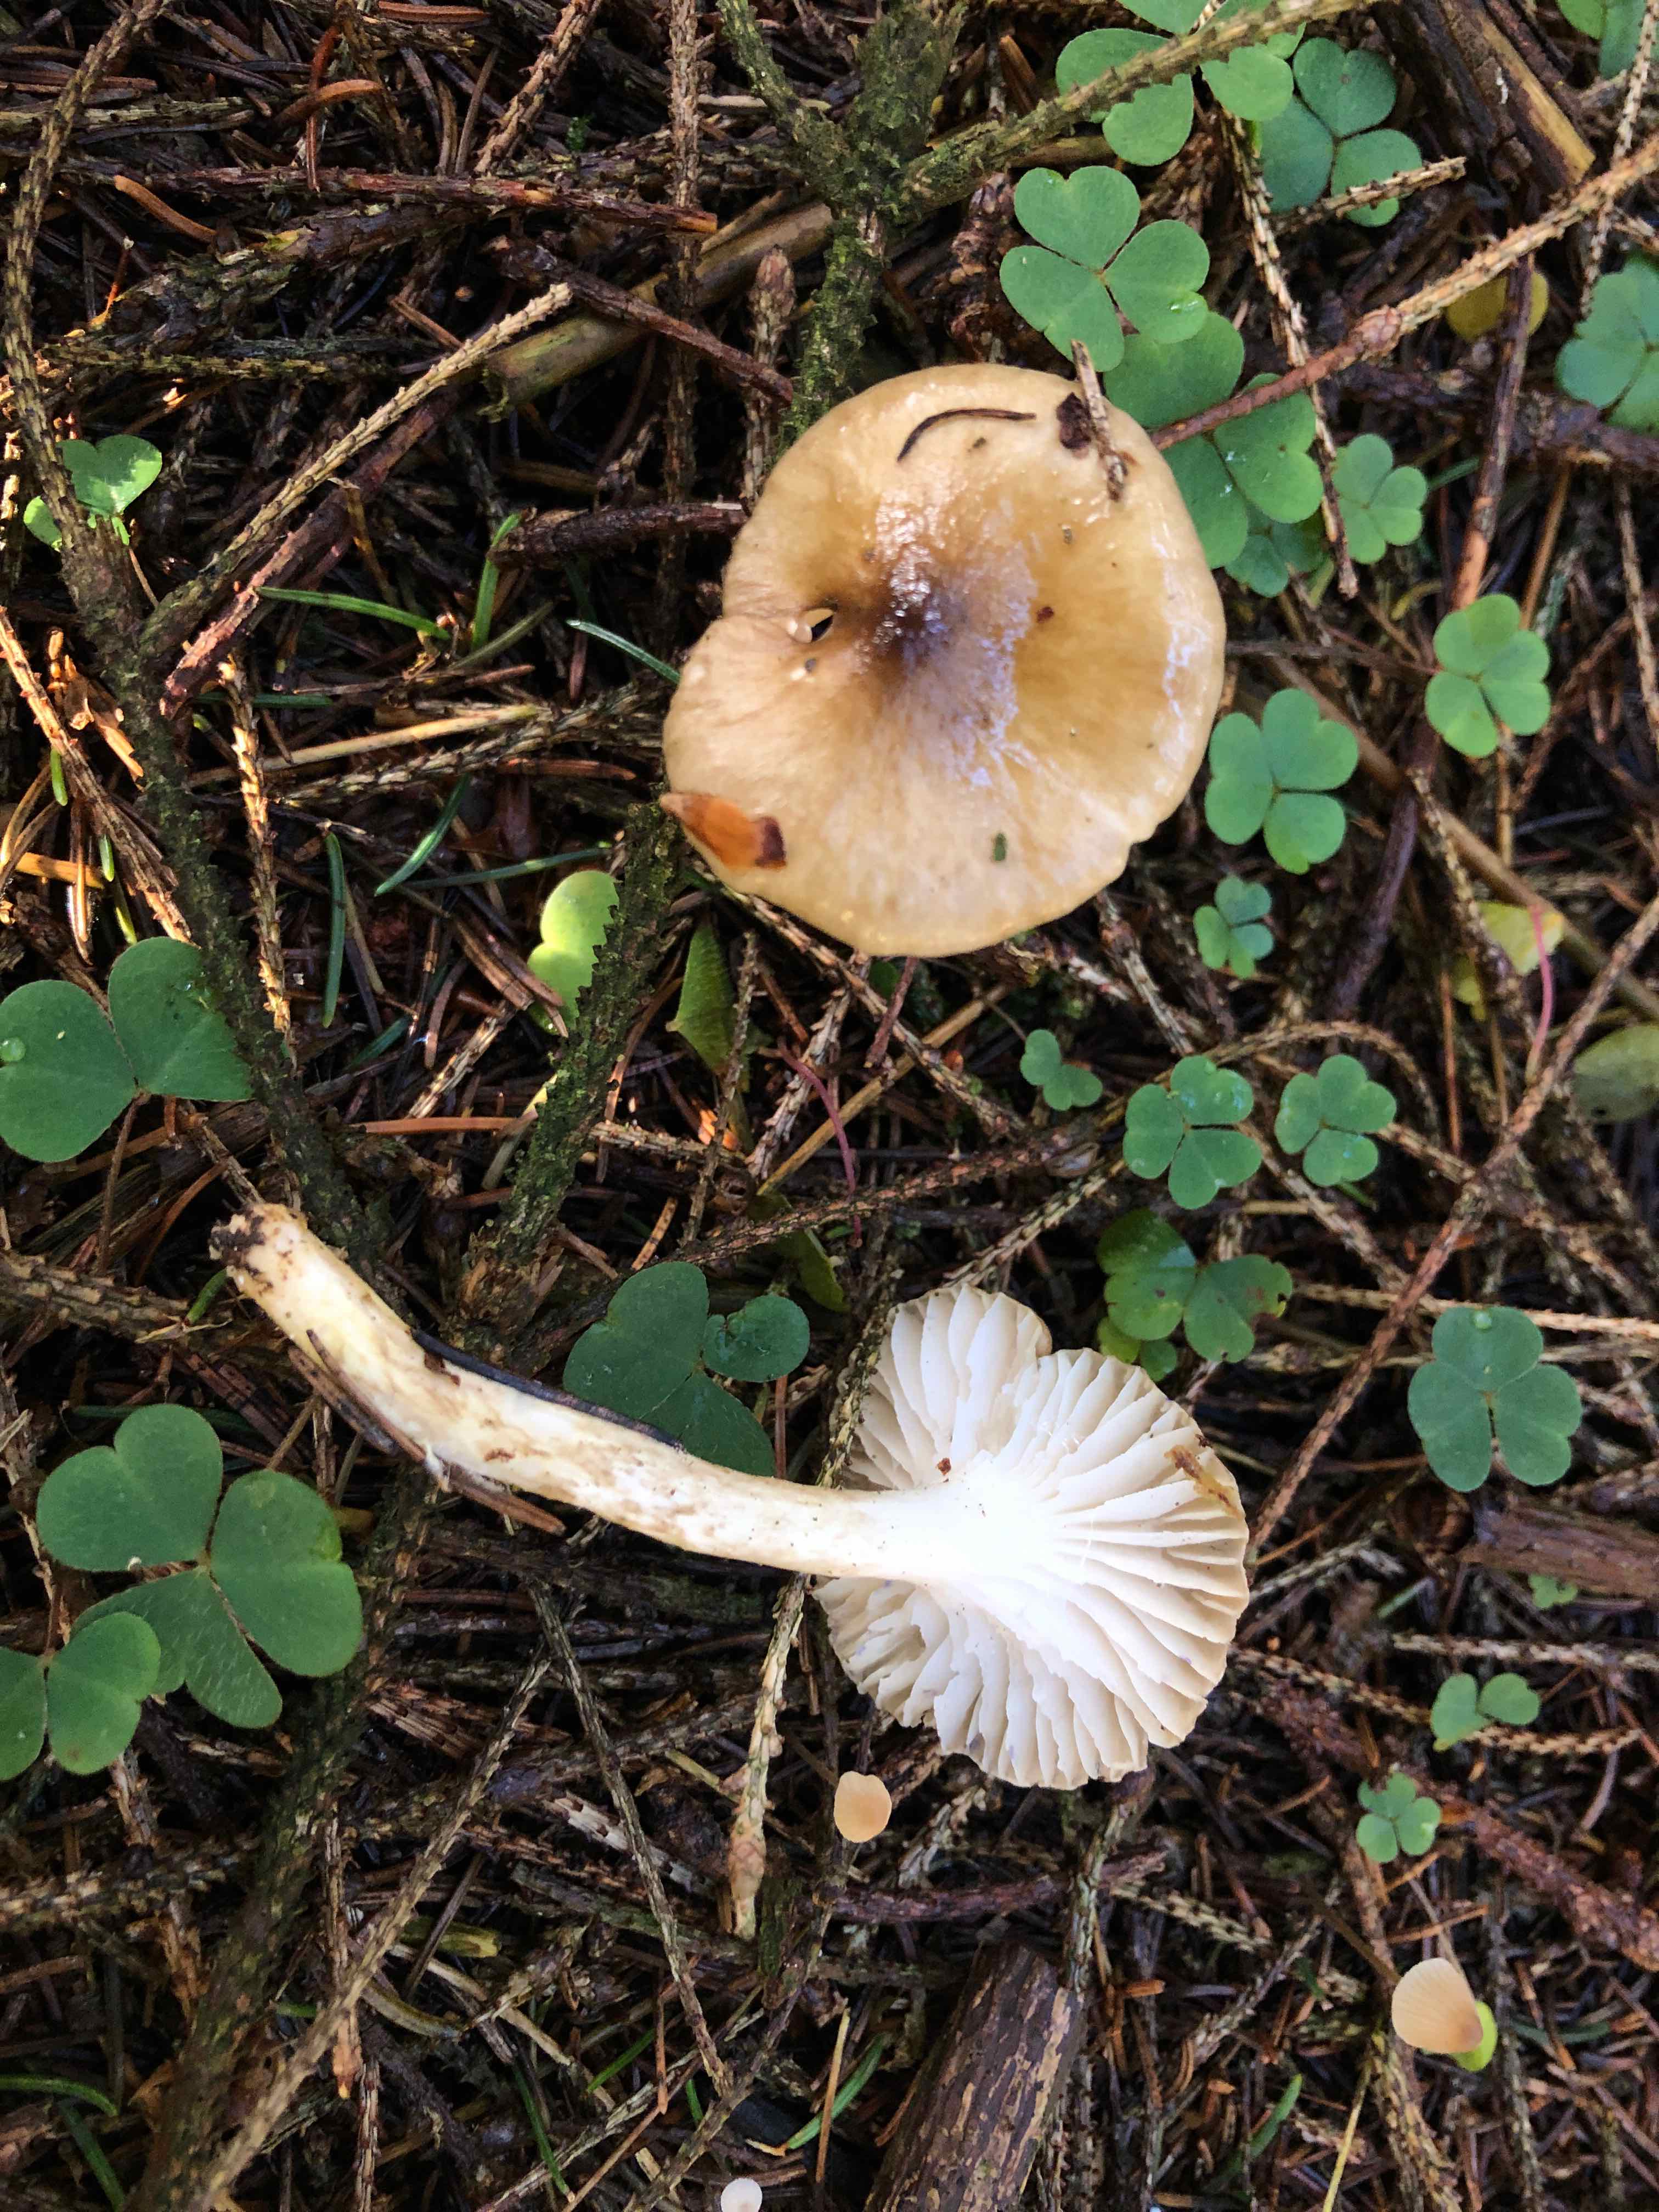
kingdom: Fungi
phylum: Basidiomycota
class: Agaricomycetes
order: Agaricales
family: Hygrophoraceae
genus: Hygrophorus
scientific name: Hygrophorus olivaceoalbus
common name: hvidbrun sneglehat
